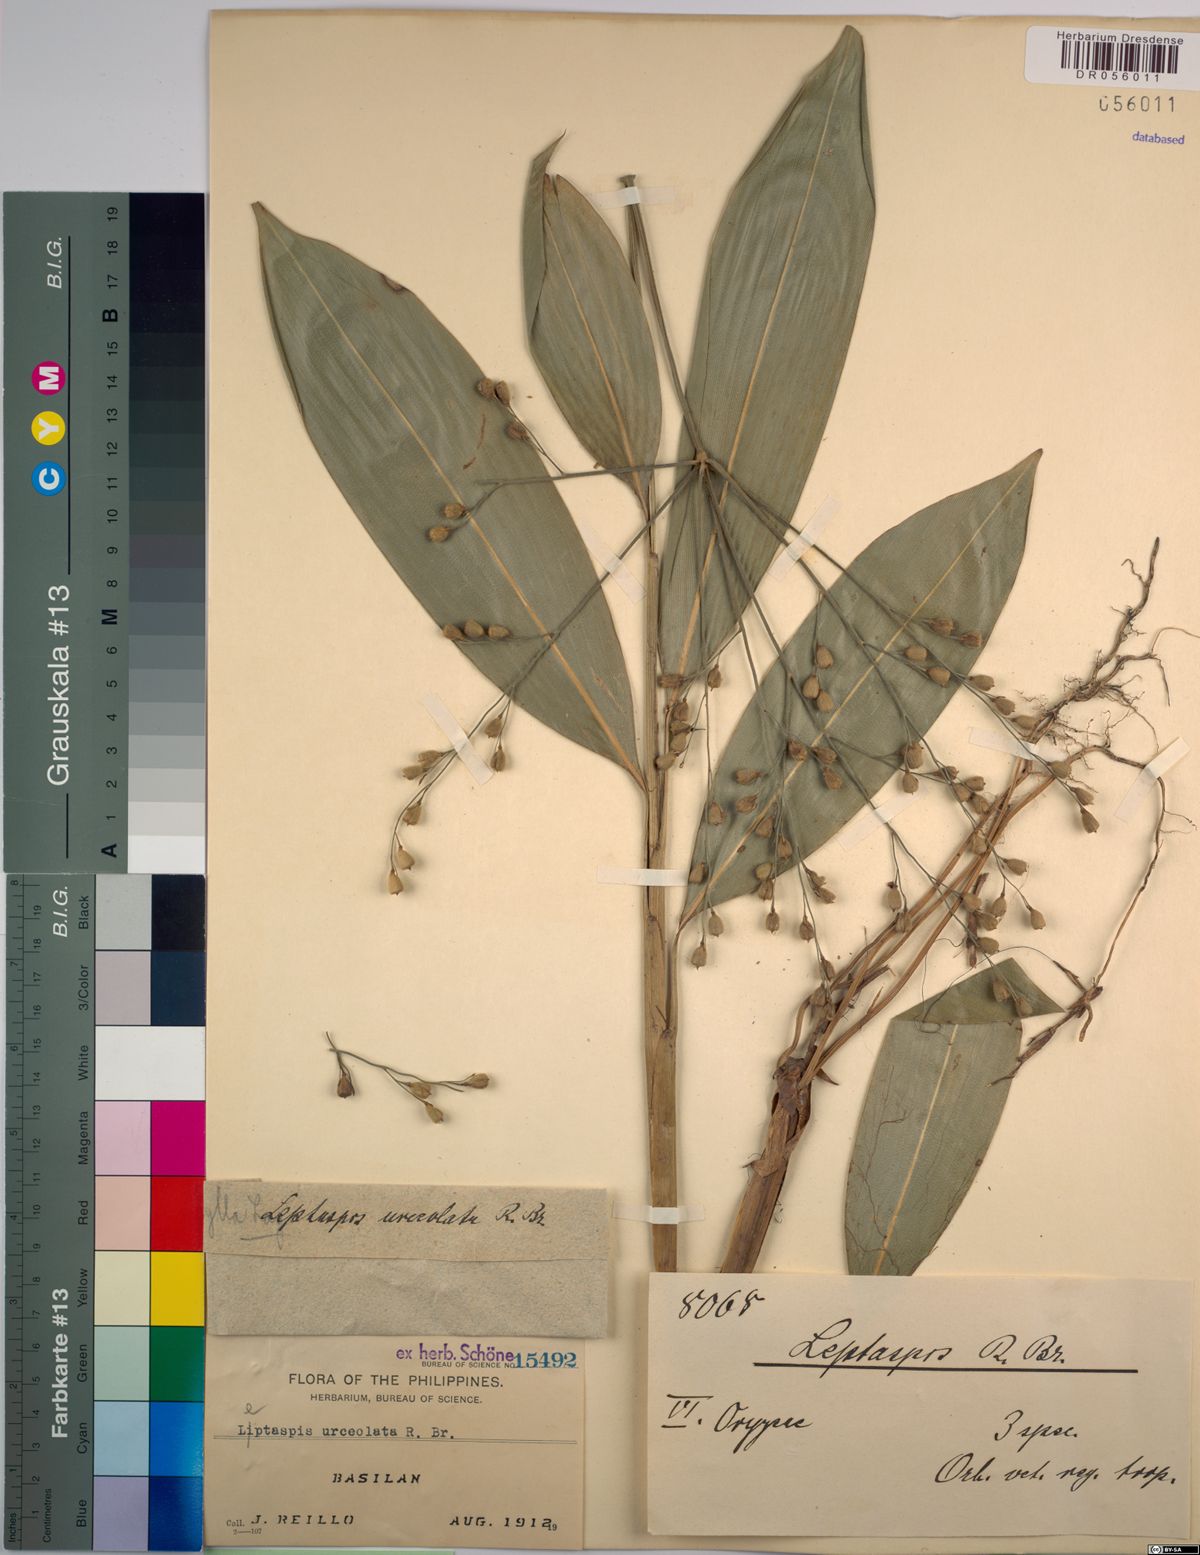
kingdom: Plantae
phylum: Tracheophyta
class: Liliopsida
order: Poales
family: Poaceae
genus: Scrotochloa
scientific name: Scrotochloa urceolata
